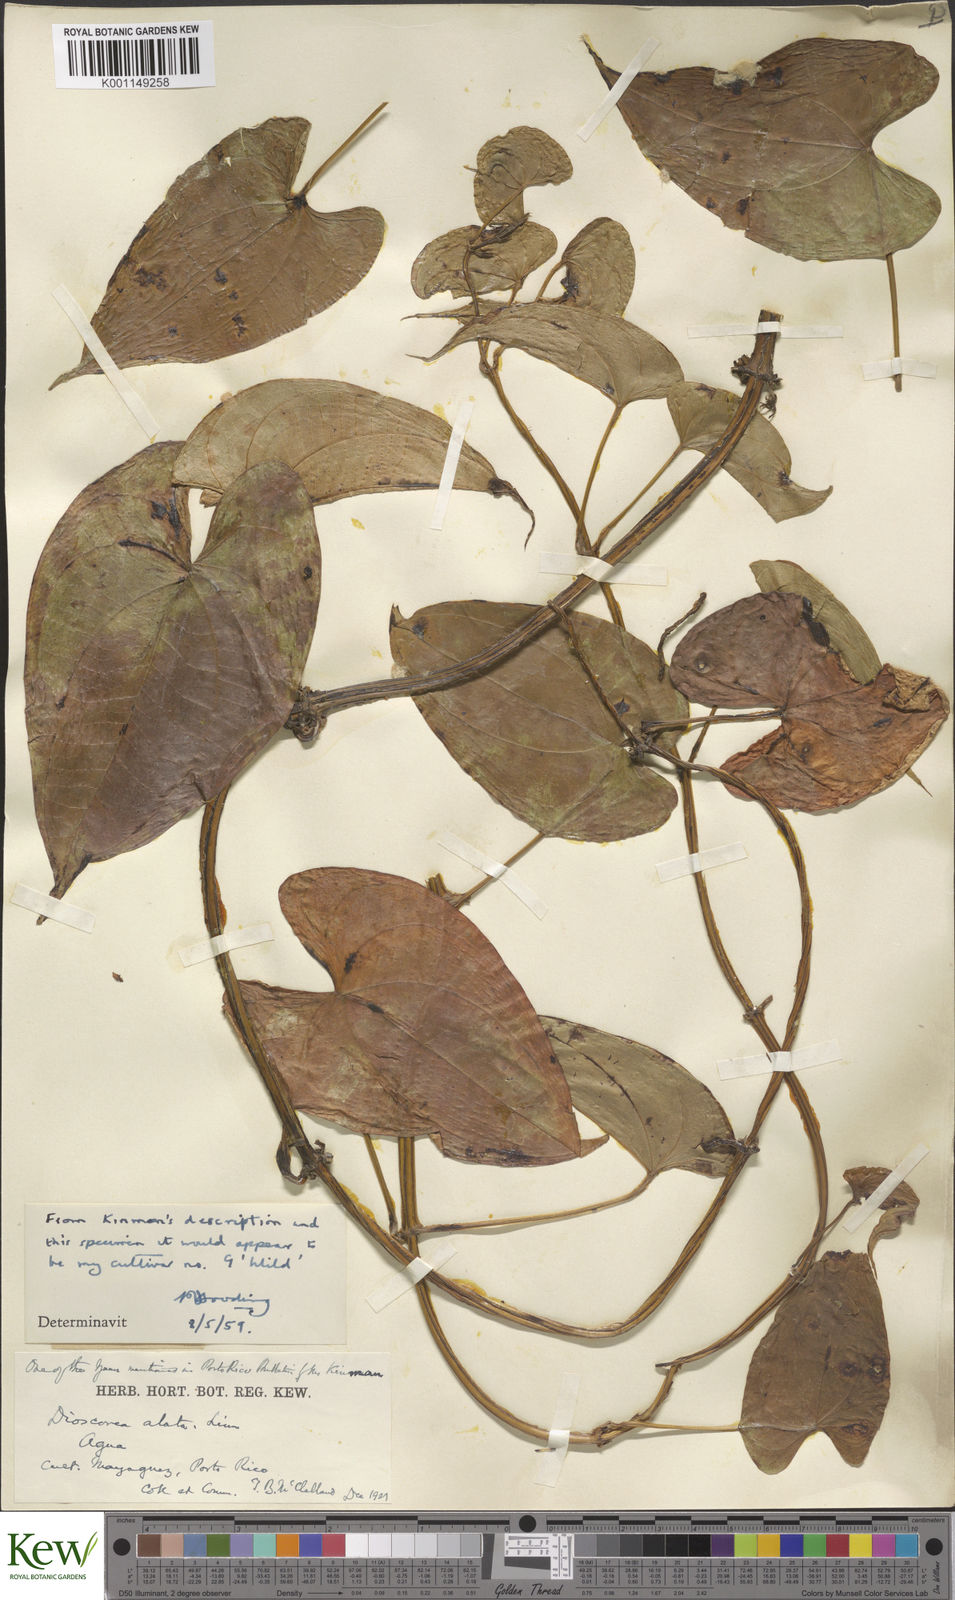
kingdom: Plantae
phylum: Tracheophyta
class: Liliopsida
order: Dioscoreales
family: Dioscoreaceae
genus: Dioscorea
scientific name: Dioscorea alata
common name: Water yam
